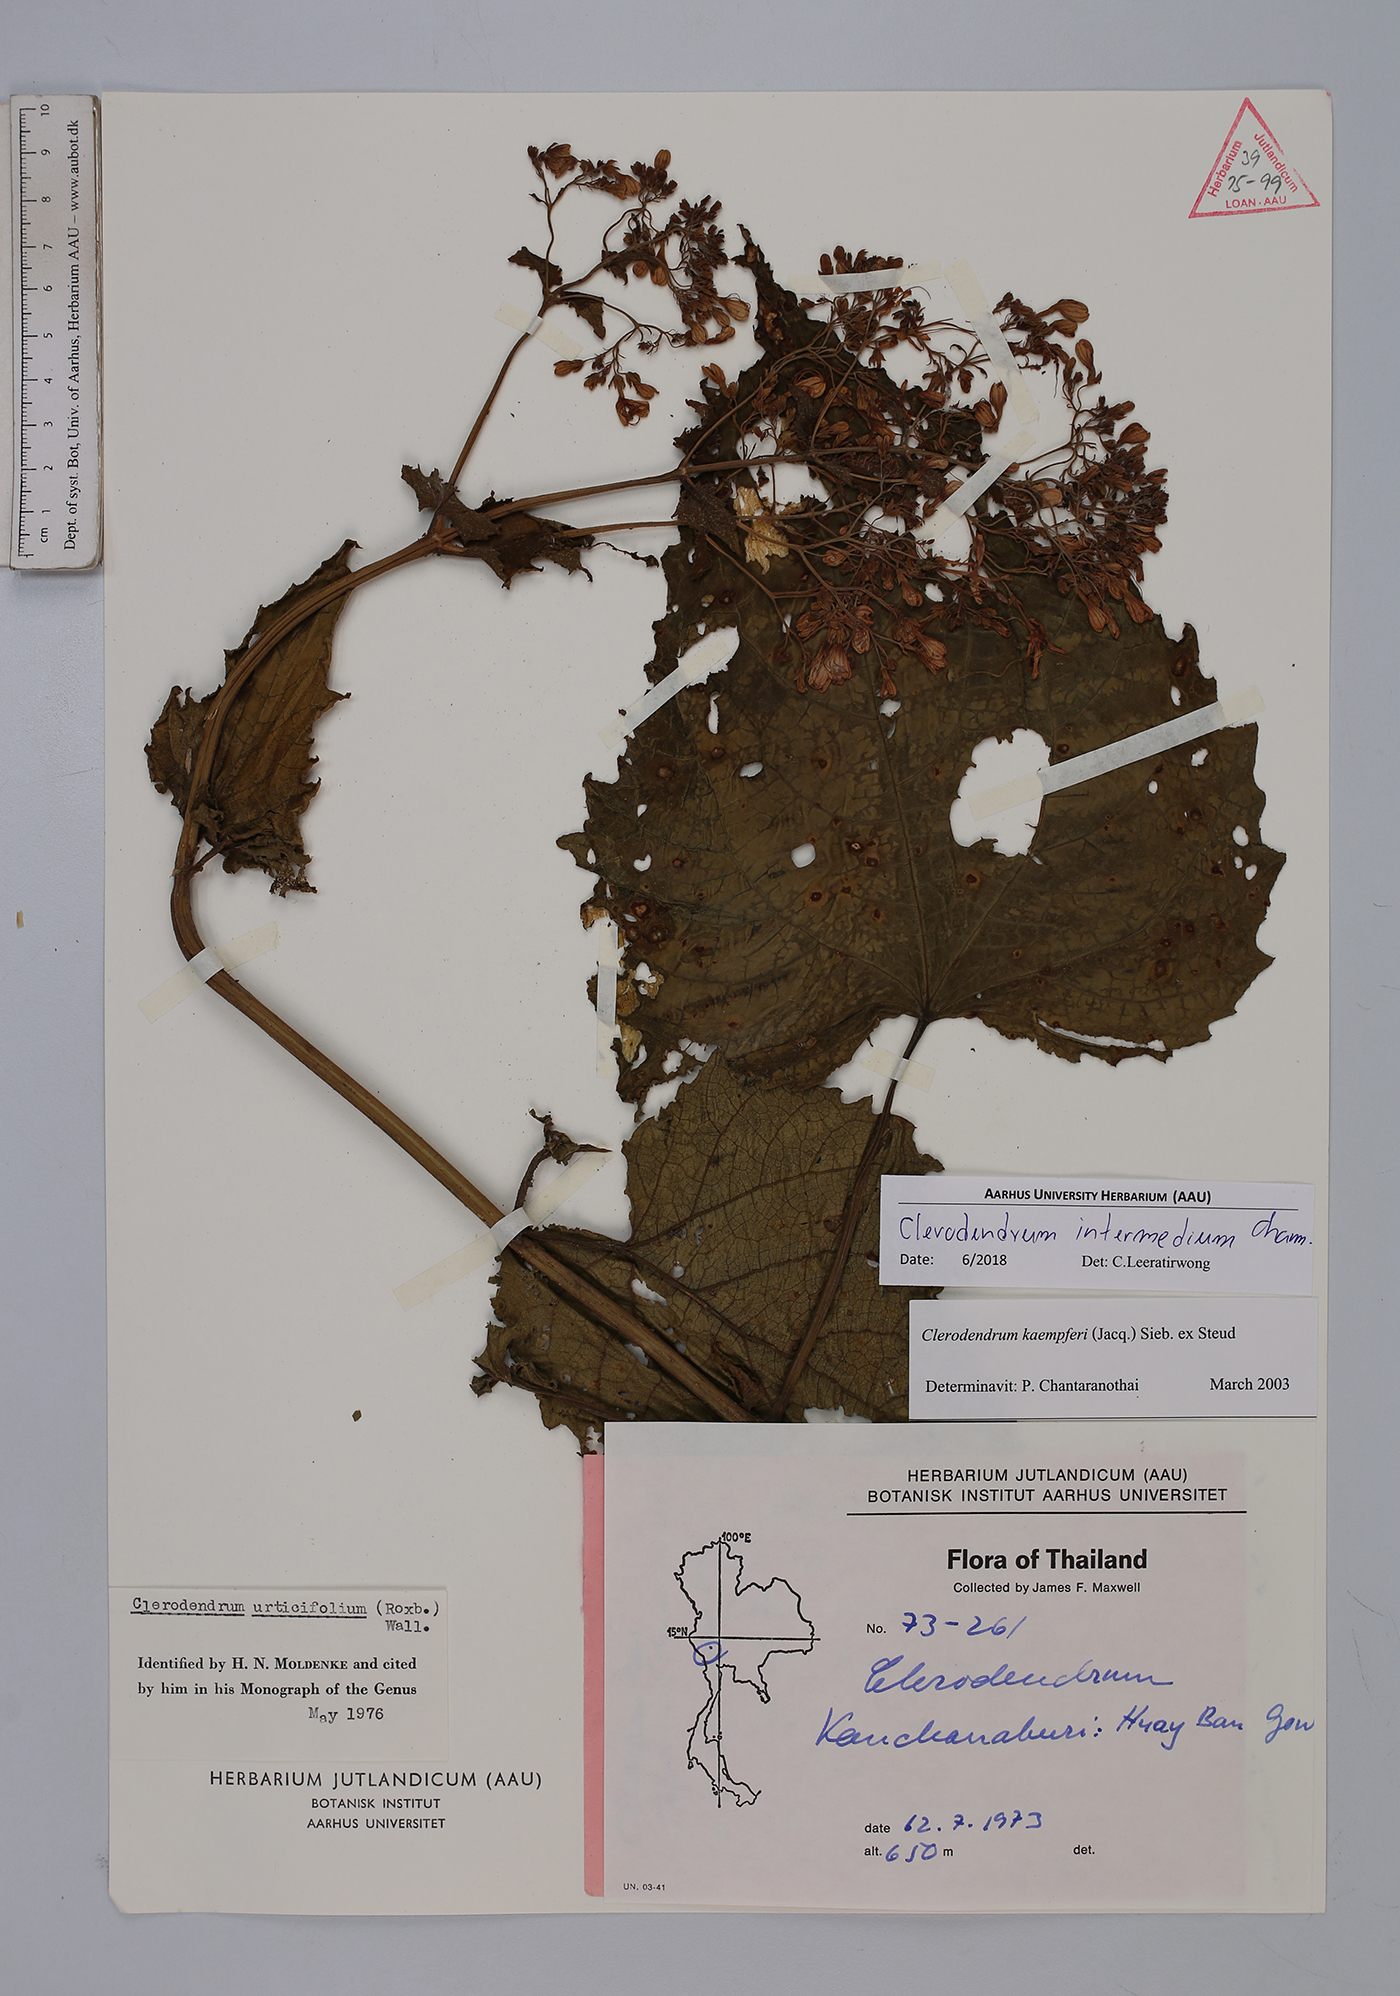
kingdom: Plantae
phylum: Tracheophyta
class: Magnoliopsida
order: Lamiales
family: Lamiaceae
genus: Clerodendrum
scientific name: Clerodendrum intermedium
